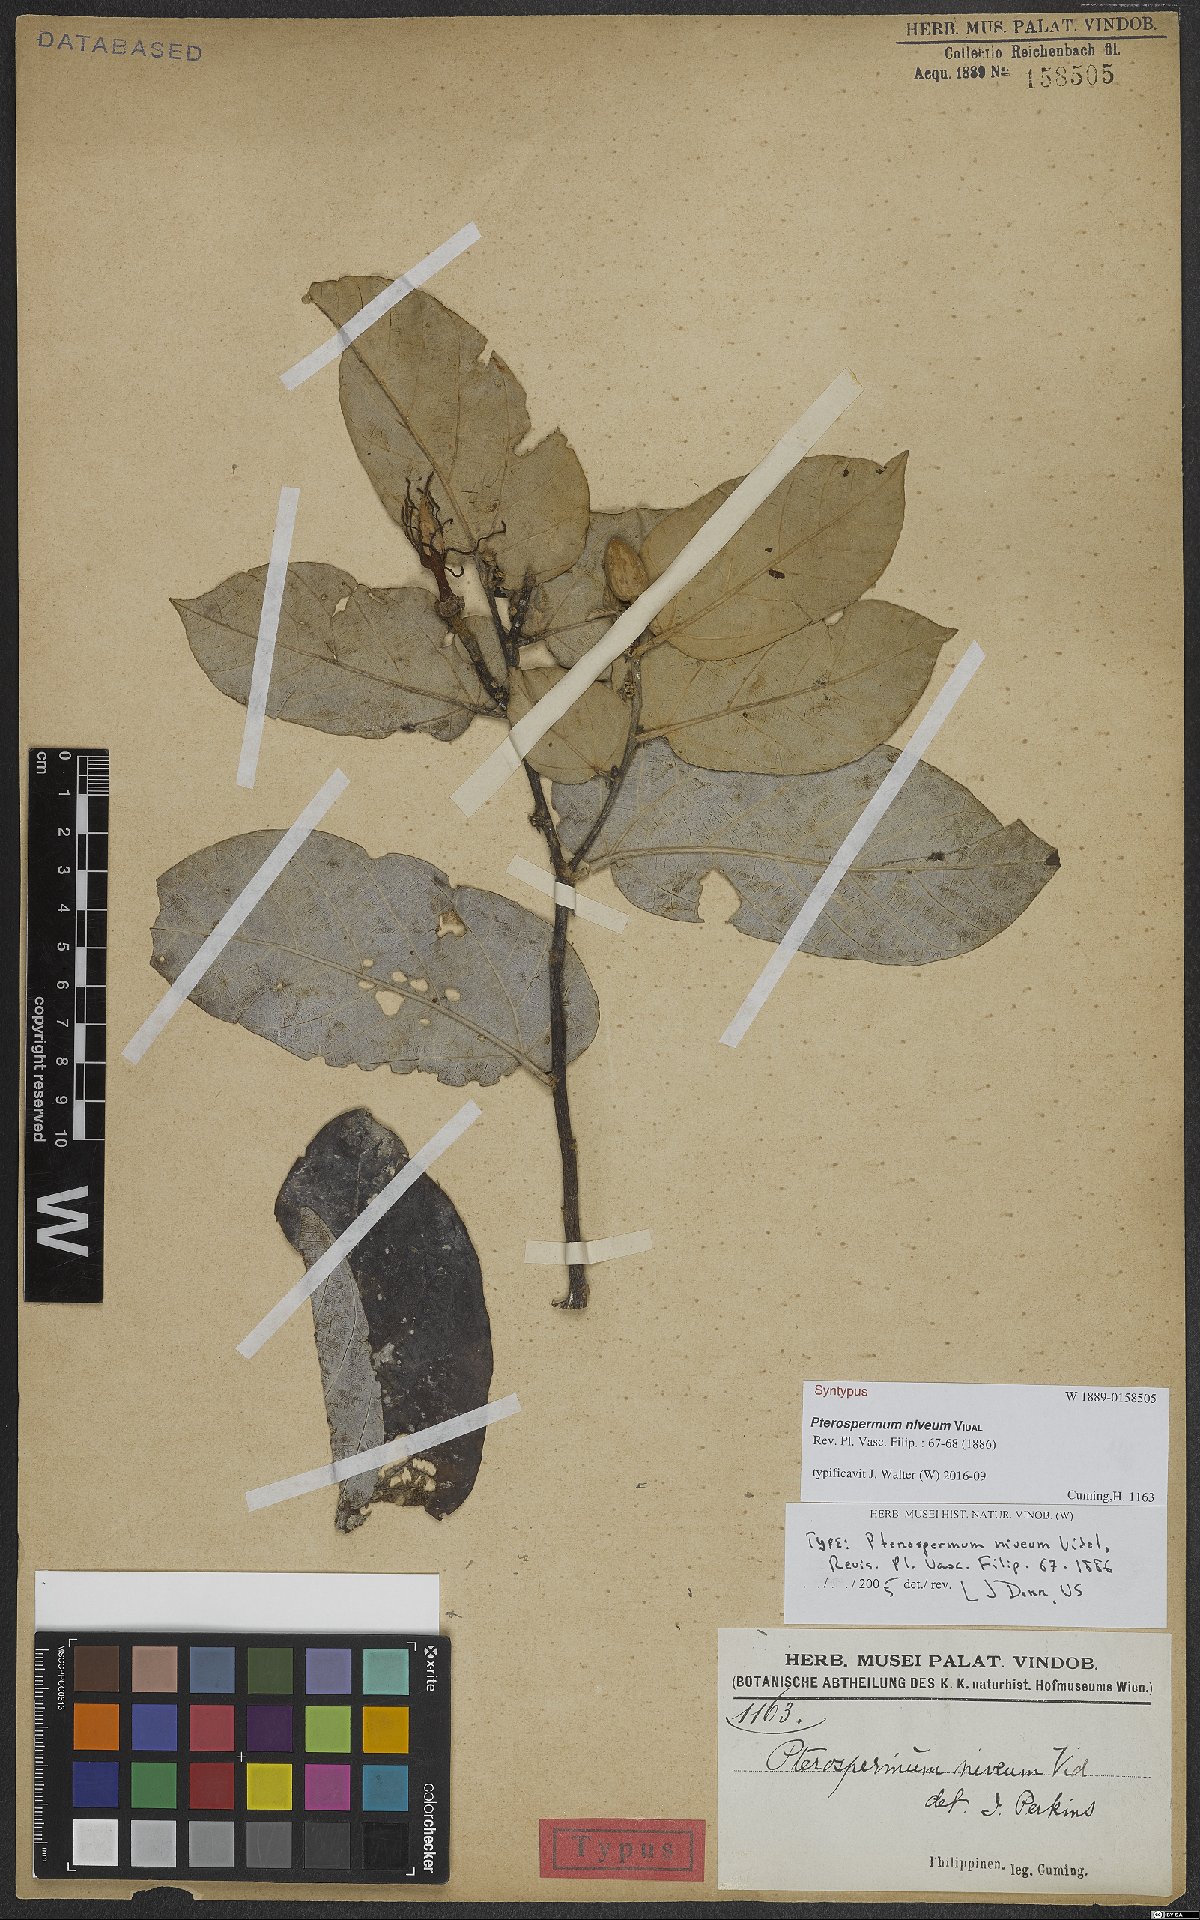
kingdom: Plantae
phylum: Tracheophyta
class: Magnoliopsida
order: Malvales
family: Malvaceae
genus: Pterospermum
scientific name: Pterospermum niveum
